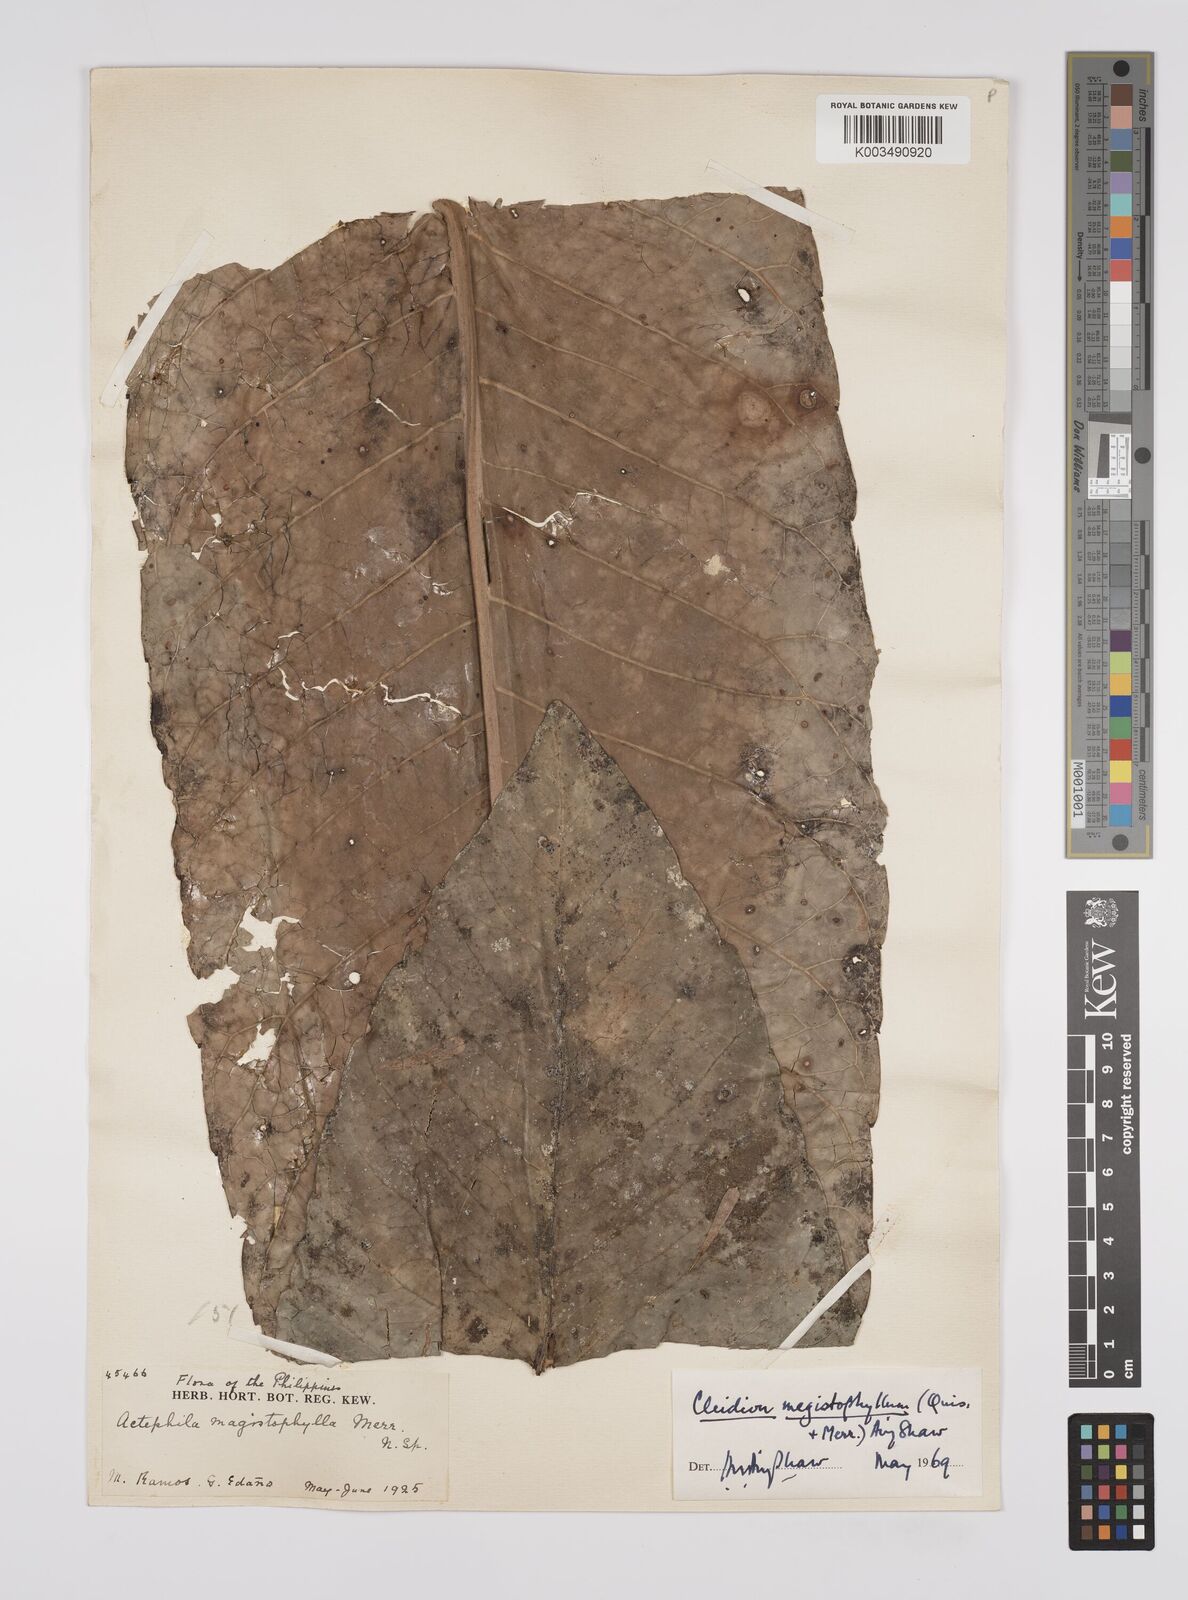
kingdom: Plantae
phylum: Tracheophyta
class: Magnoliopsida
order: Malpighiales
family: Euphorbiaceae
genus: Cleidion
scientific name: Cleidion megistophyllum
